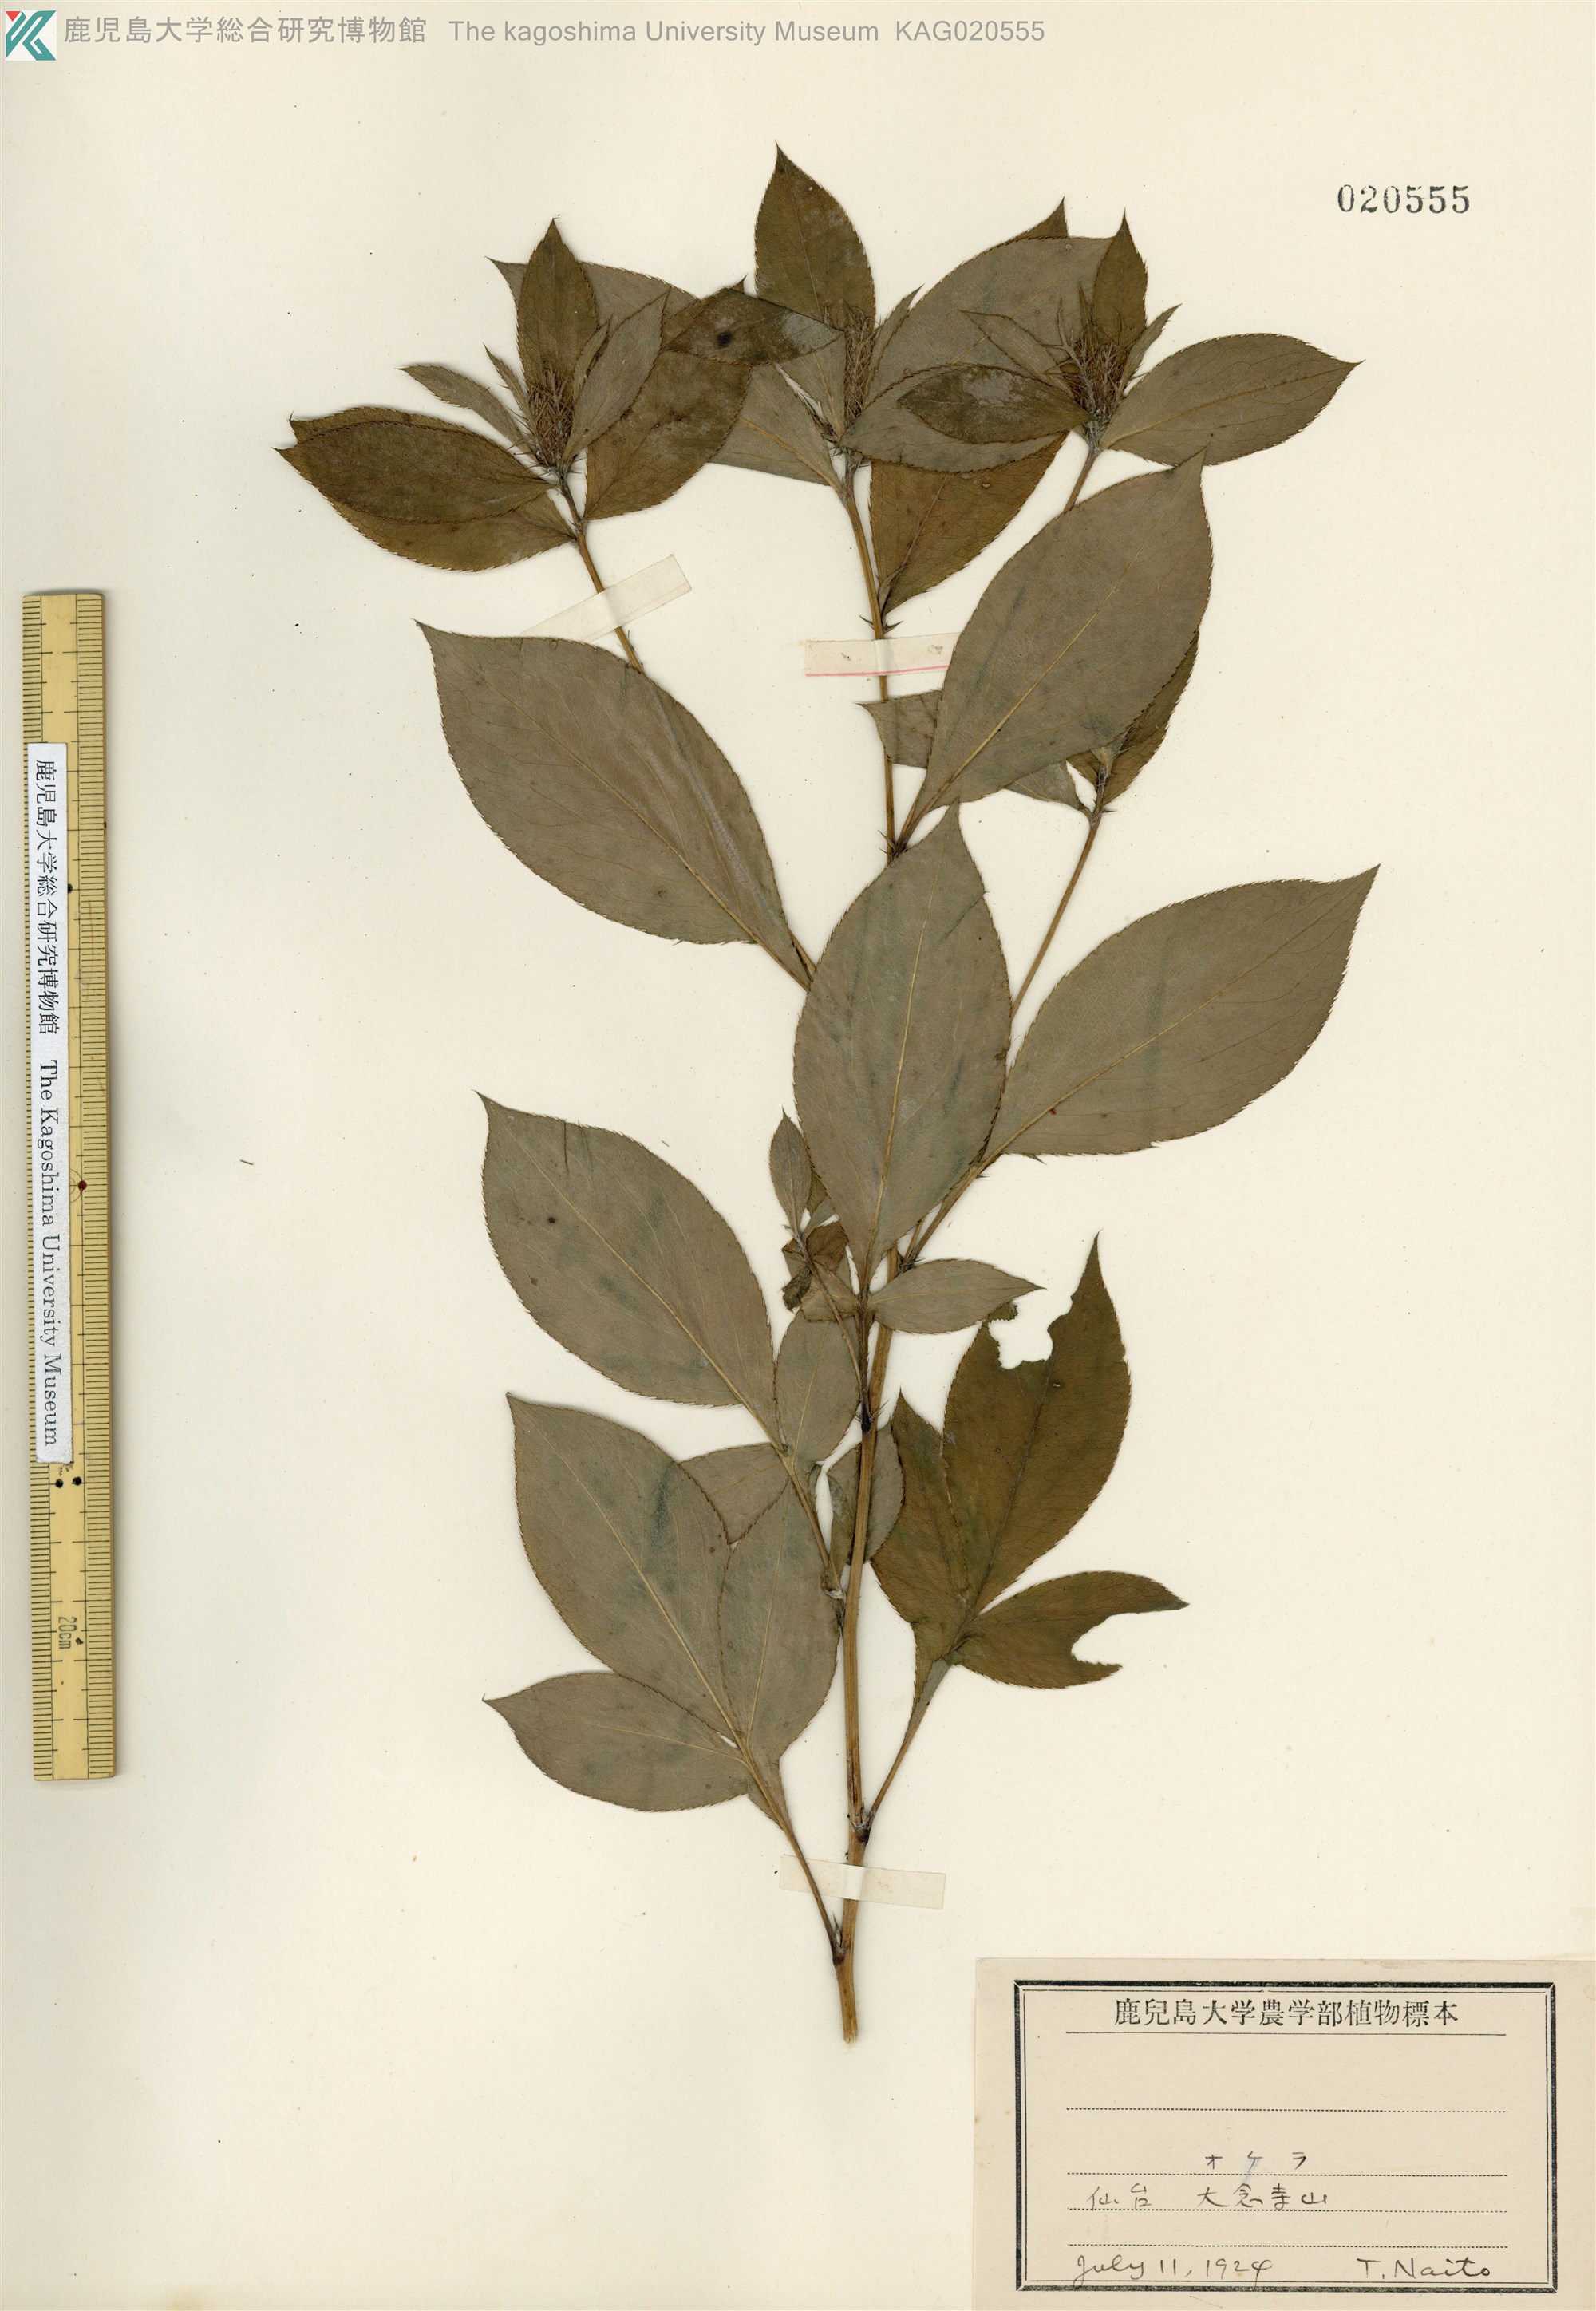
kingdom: Plantae
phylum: Tracheophyta
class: Magnoliopsida
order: Asterales
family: Asteraceae
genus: Atractylodes
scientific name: Atractylodes lancea
